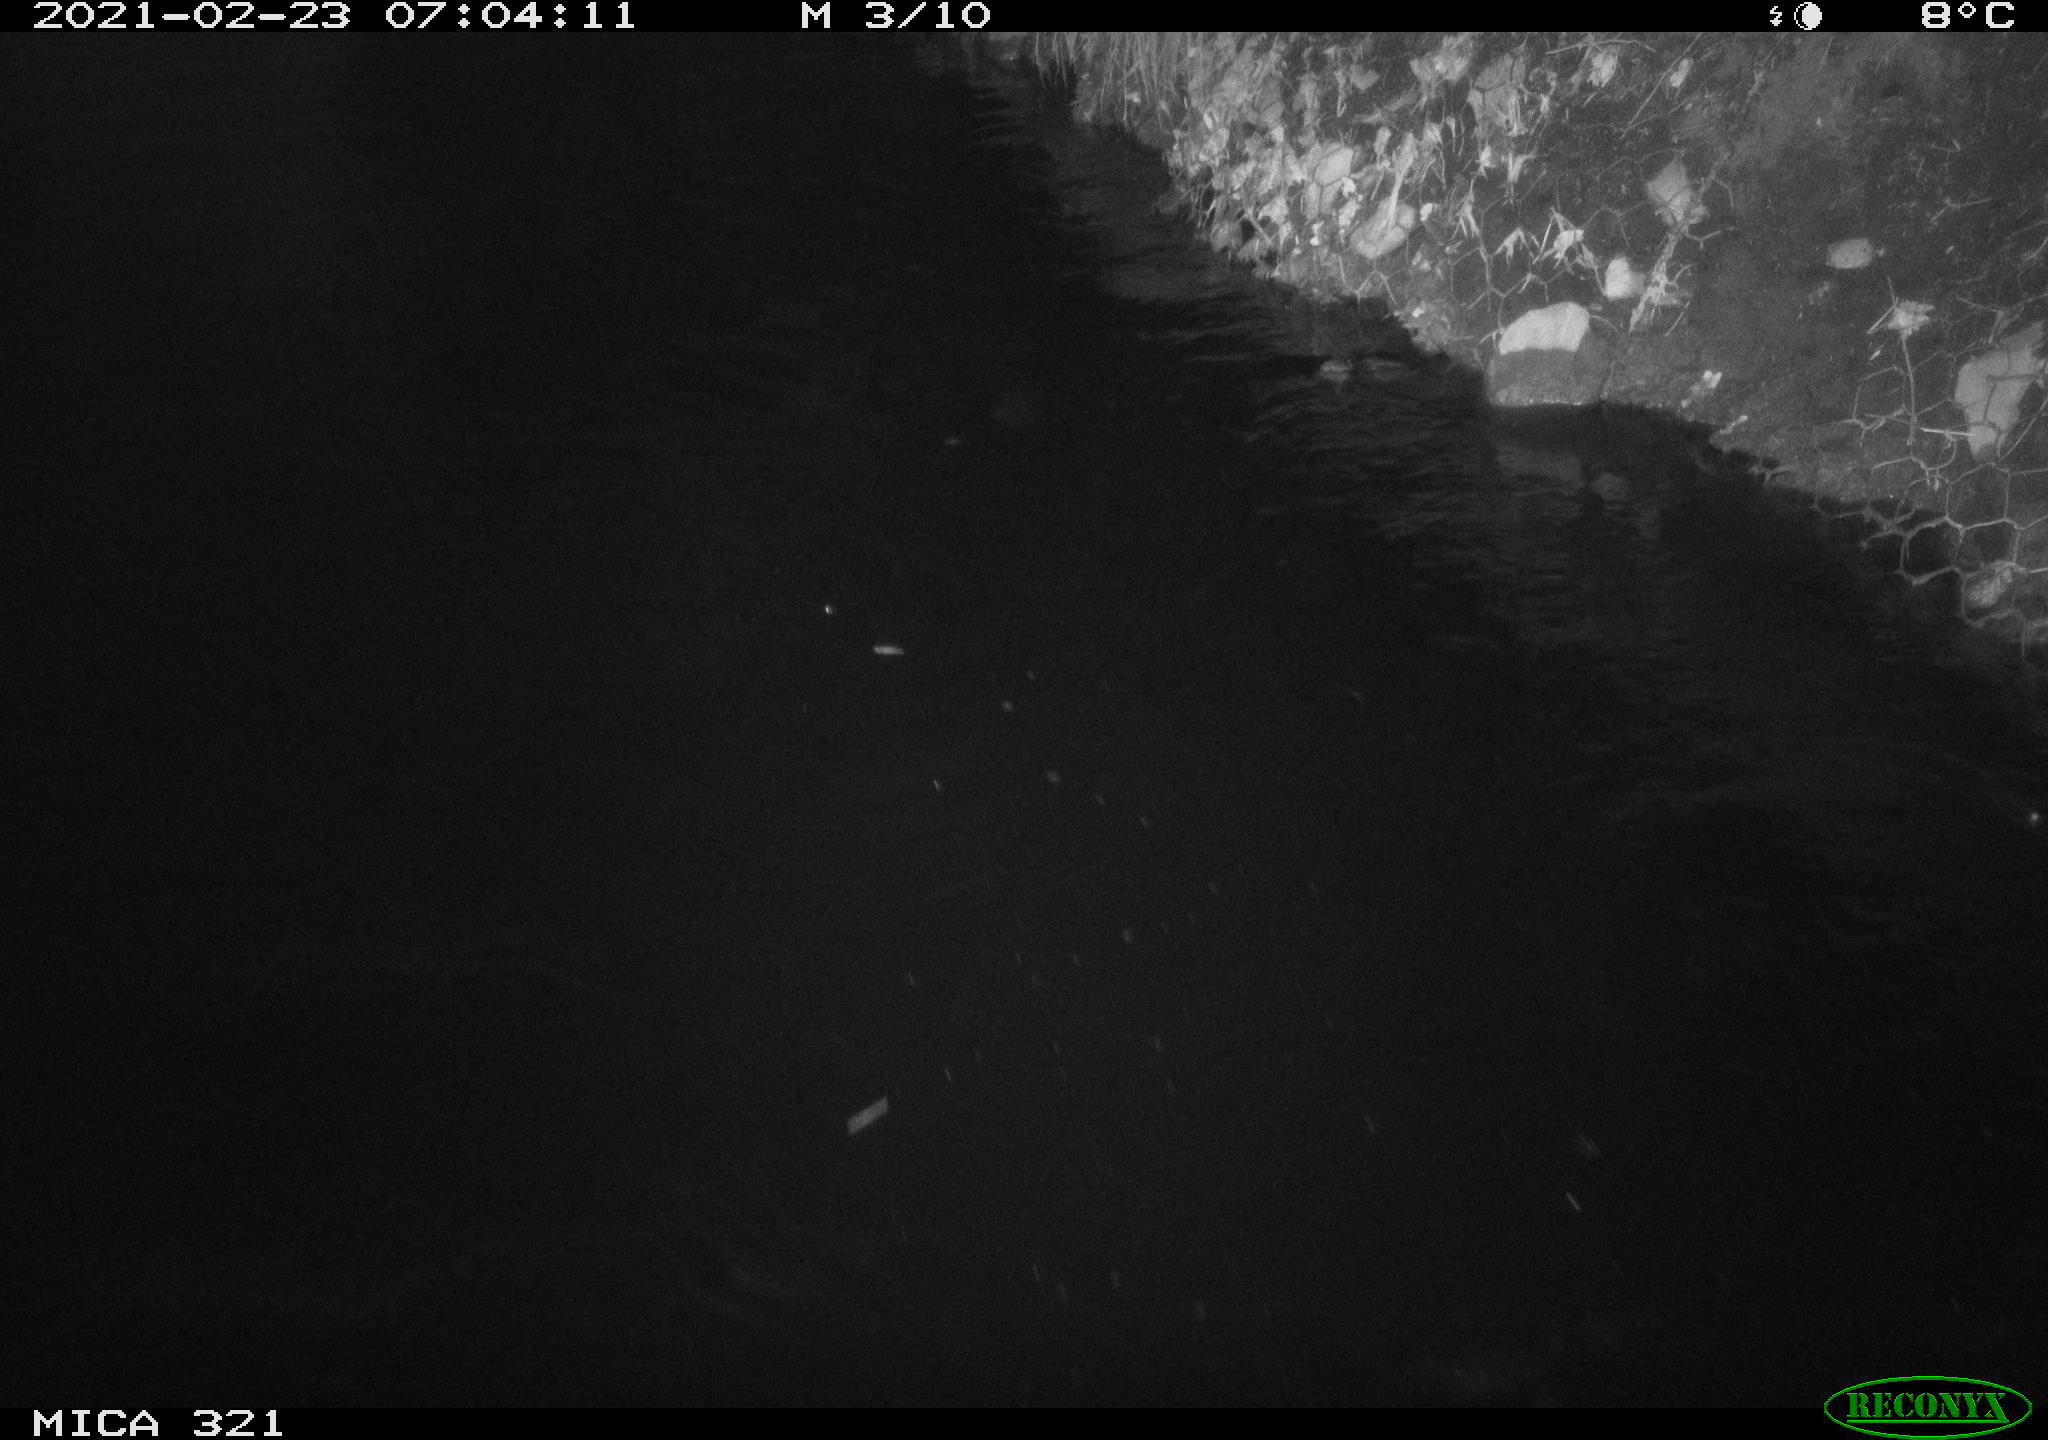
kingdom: Animalia
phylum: Chordata
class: Aves
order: Anseriformes
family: Anatidae
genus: Anas
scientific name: Anas platyrhynchos
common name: Mallard
